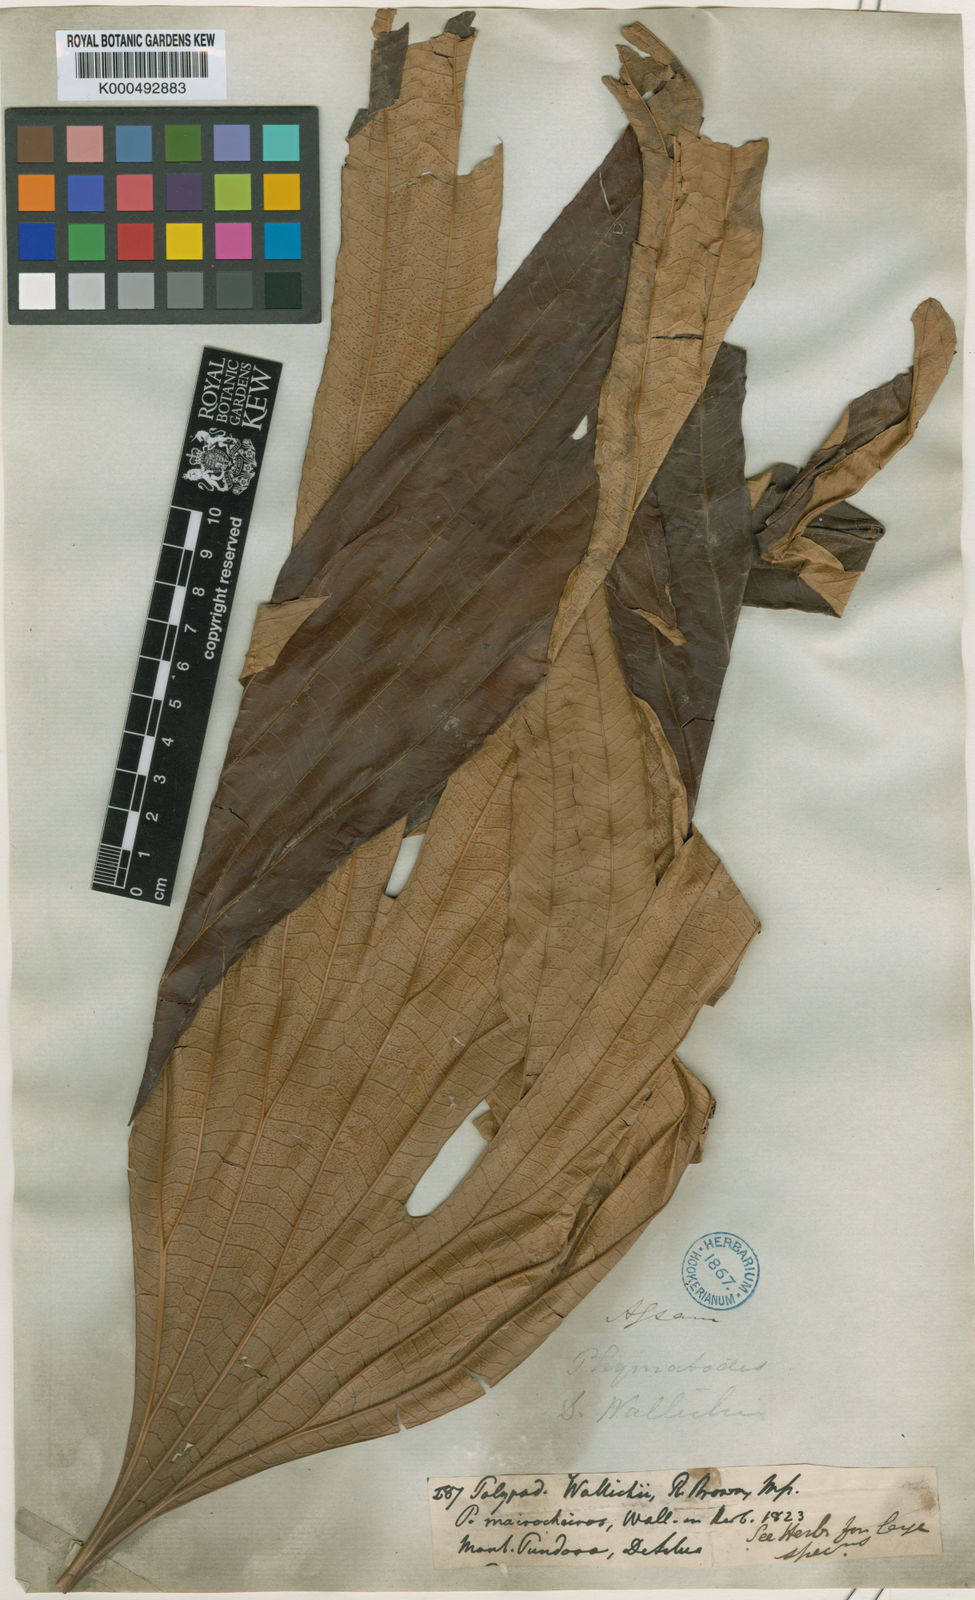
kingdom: Plantae
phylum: Tracheophyta
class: Polypodiopsida
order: Gleicheniales
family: Dipteridaceae
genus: Dipteris
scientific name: Dipteris
